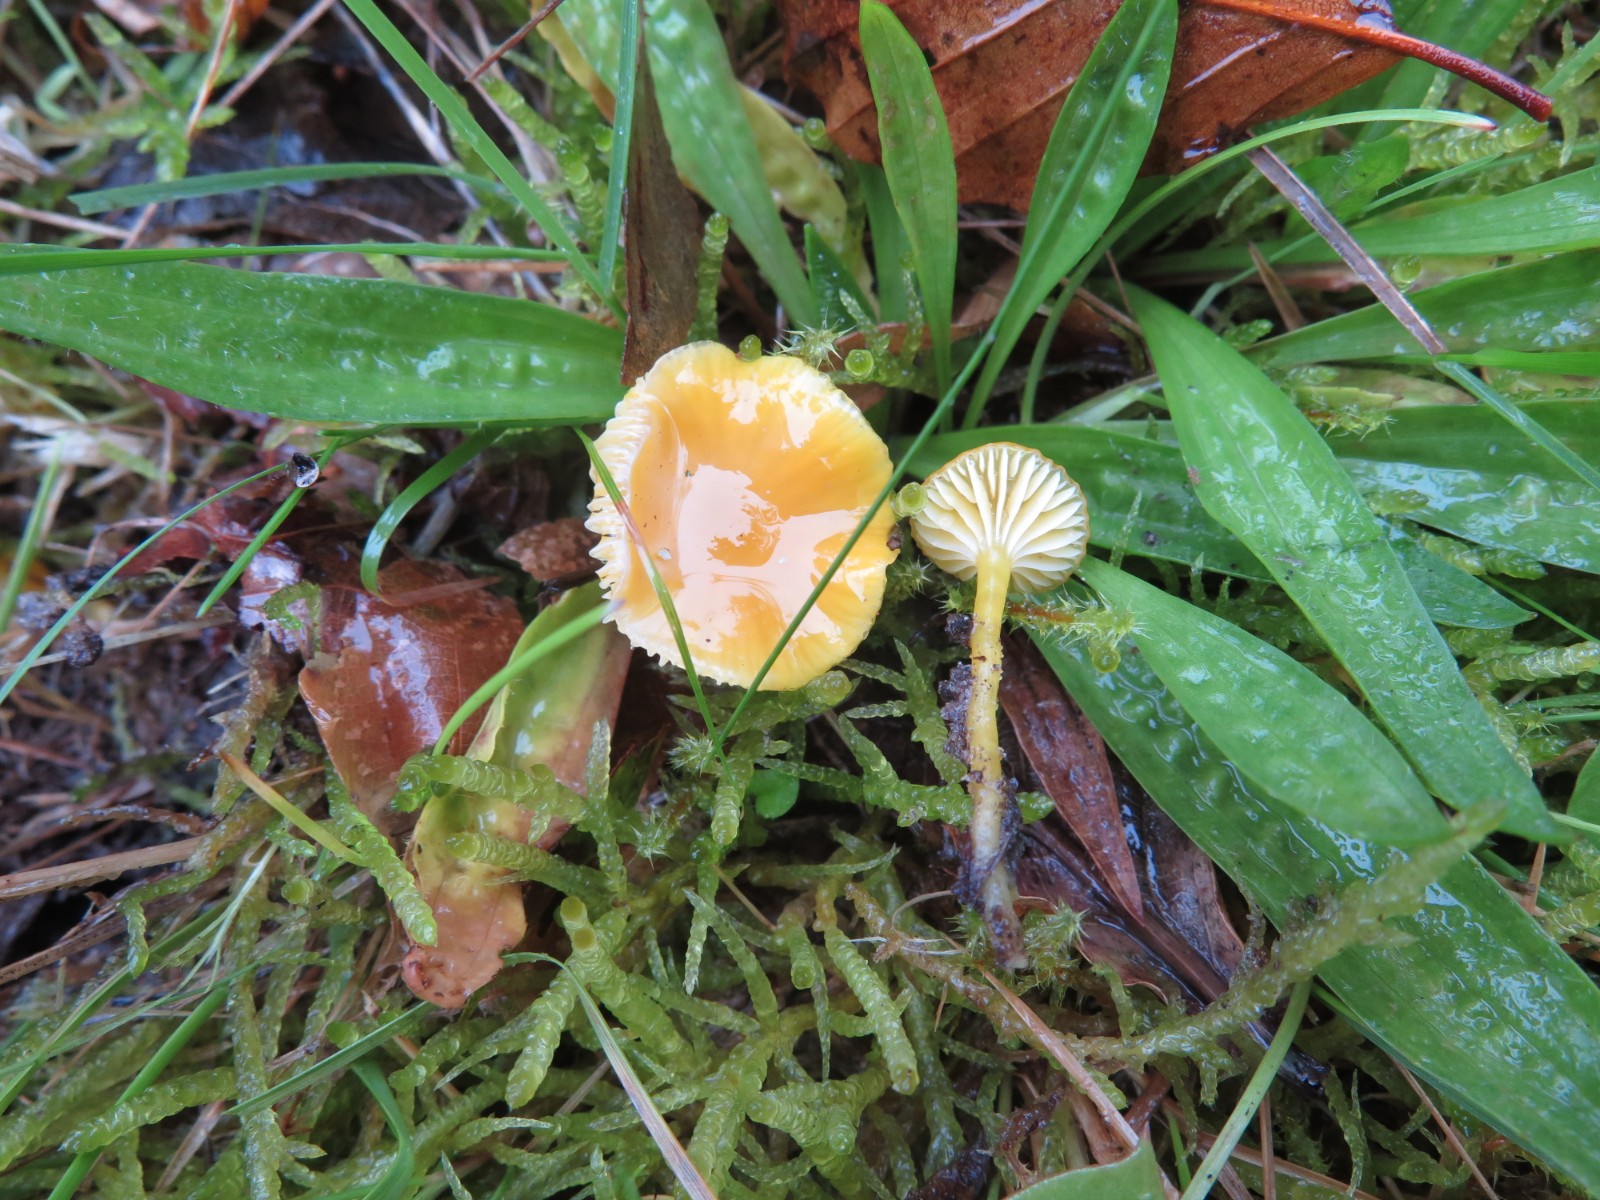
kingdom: Fungi
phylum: Basidiomycota
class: Agaricomycetes
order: Agaricales
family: Hygrophoraceae
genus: Hygrocybe
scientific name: Hygrocybe ceracea
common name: voksgul vokshat
